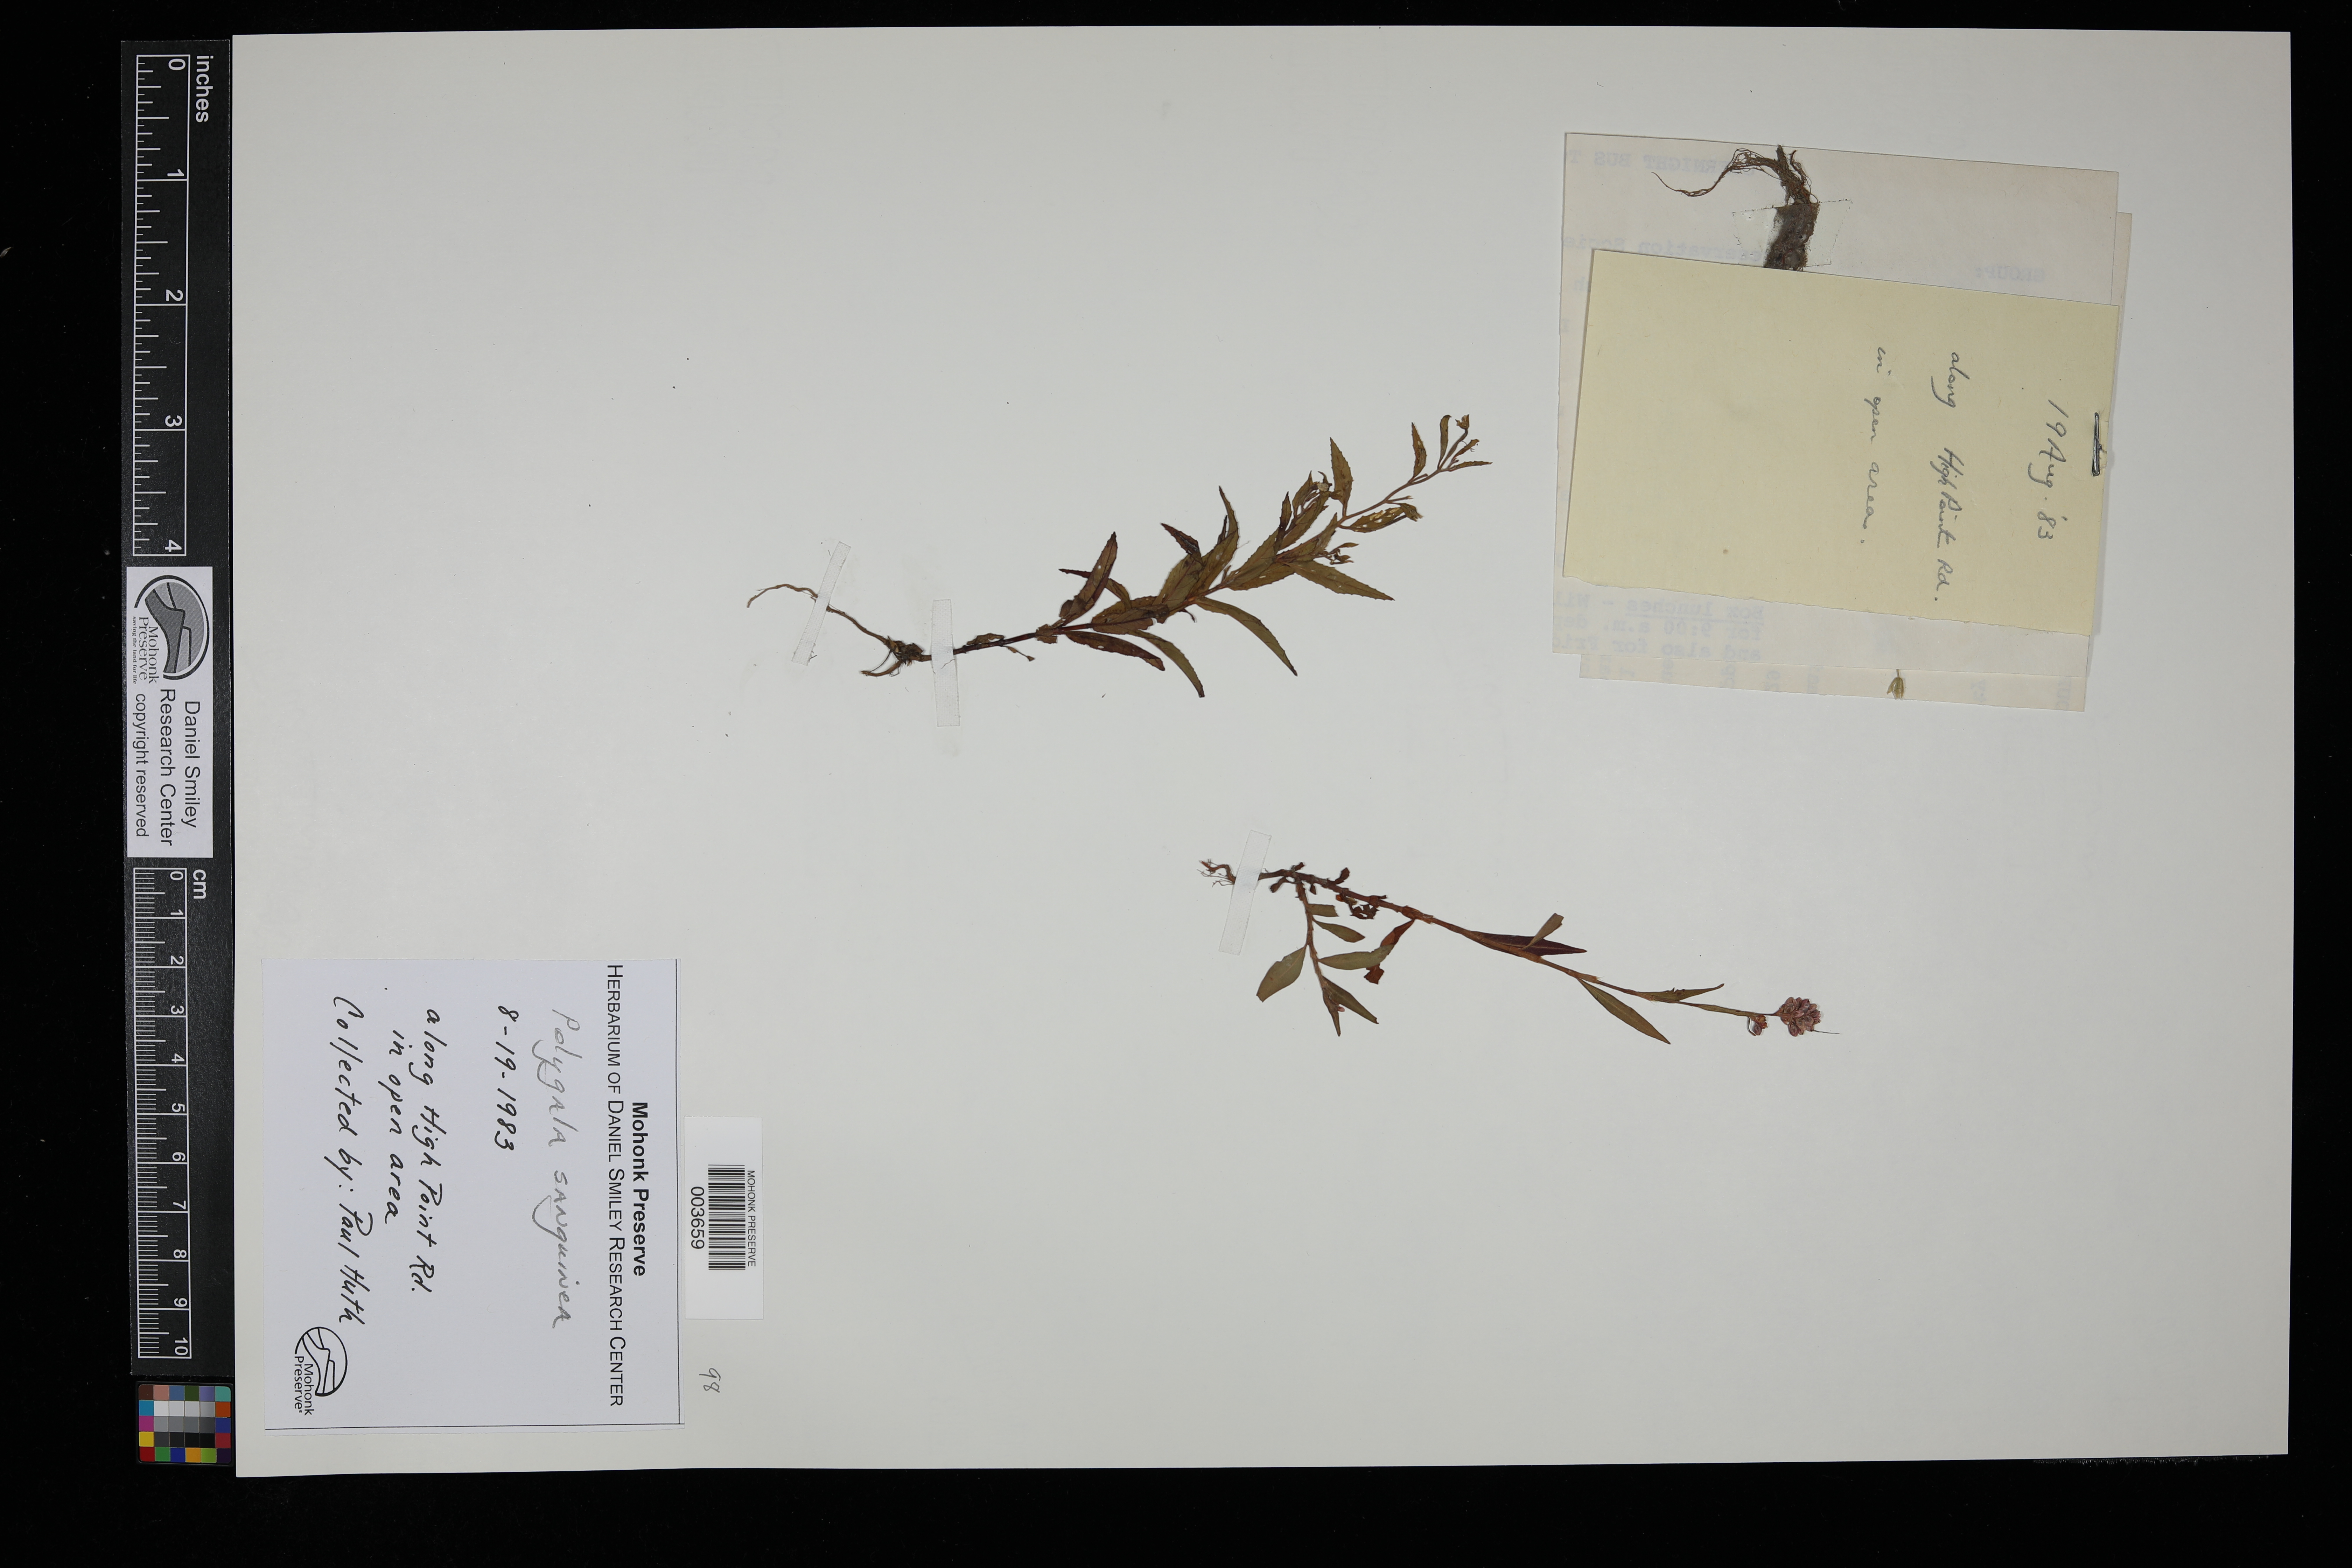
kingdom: Plantae
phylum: Tracheophyta
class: Magnoliopsida
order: Fabales
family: Polygalaceae
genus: Polygala
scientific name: Polygala sanguinea
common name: Blood milkwort
